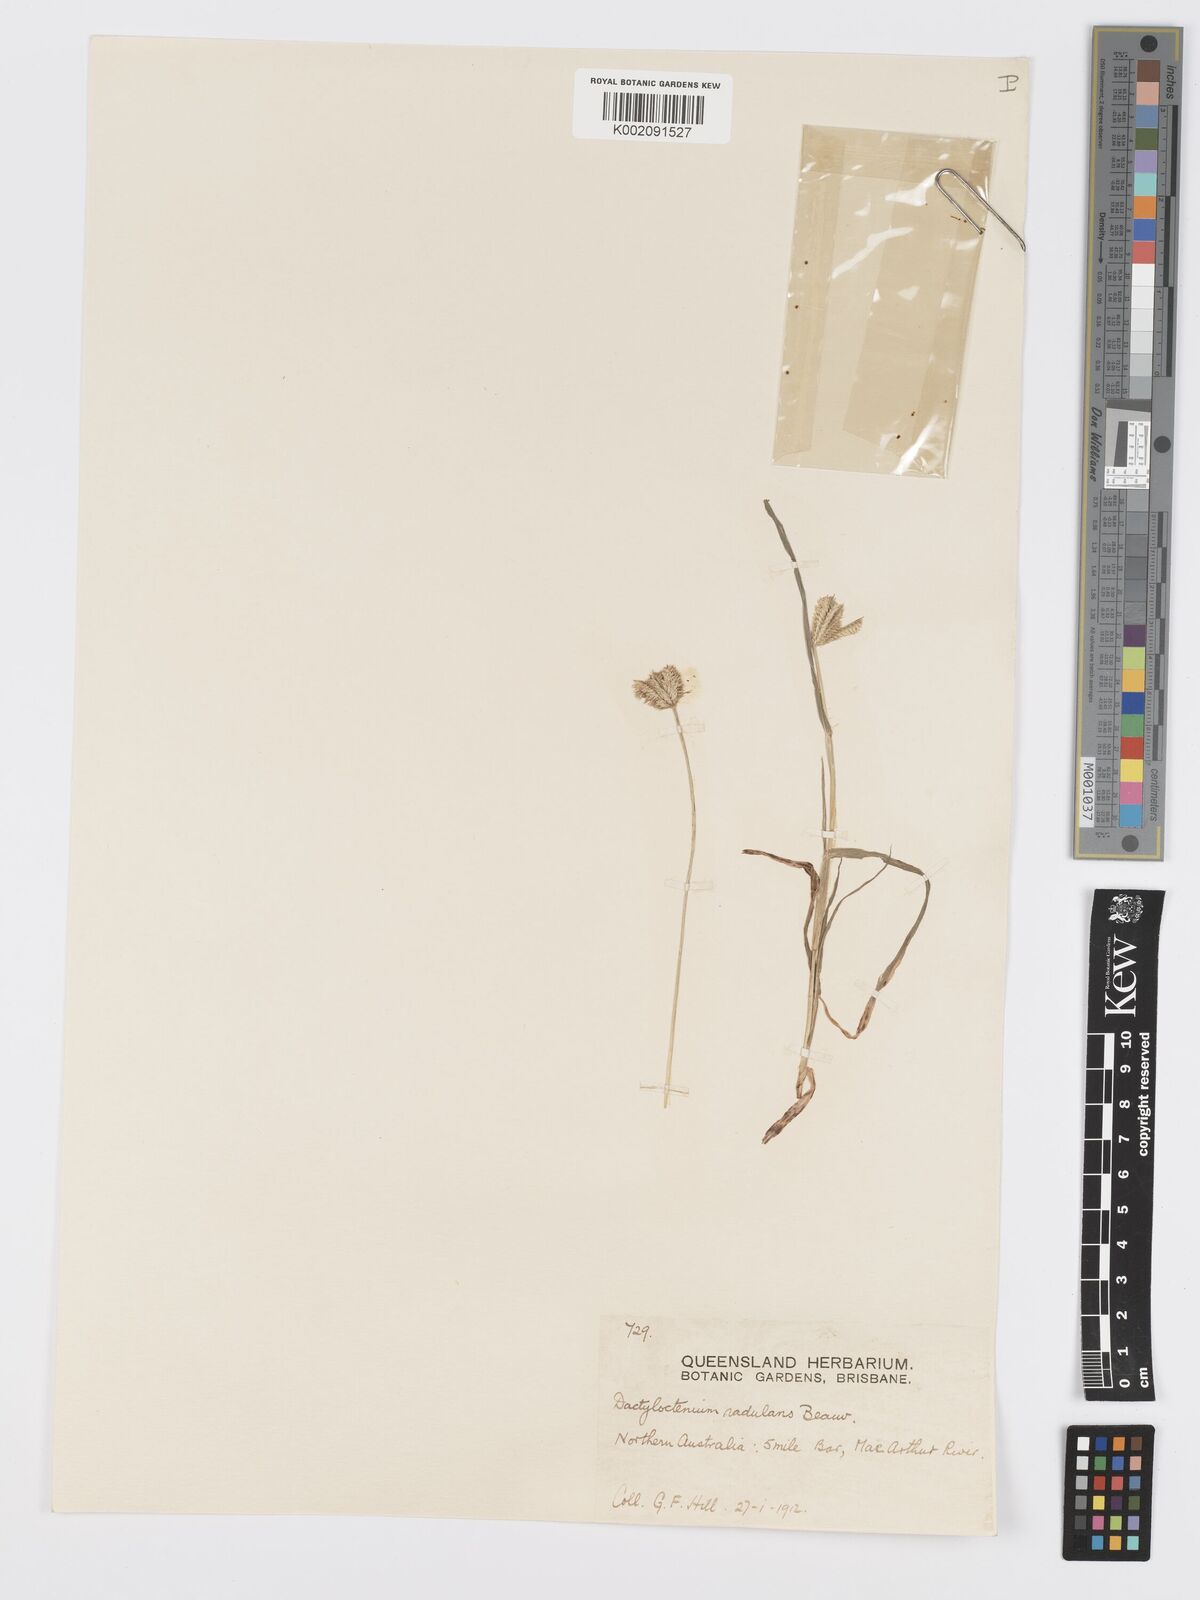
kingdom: Plantae
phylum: Tracheophyta
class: Liliopsida
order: Poales
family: Poaceae
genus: Dactyloctenium
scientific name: Dactyloctenium radulans
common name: Button-grass
